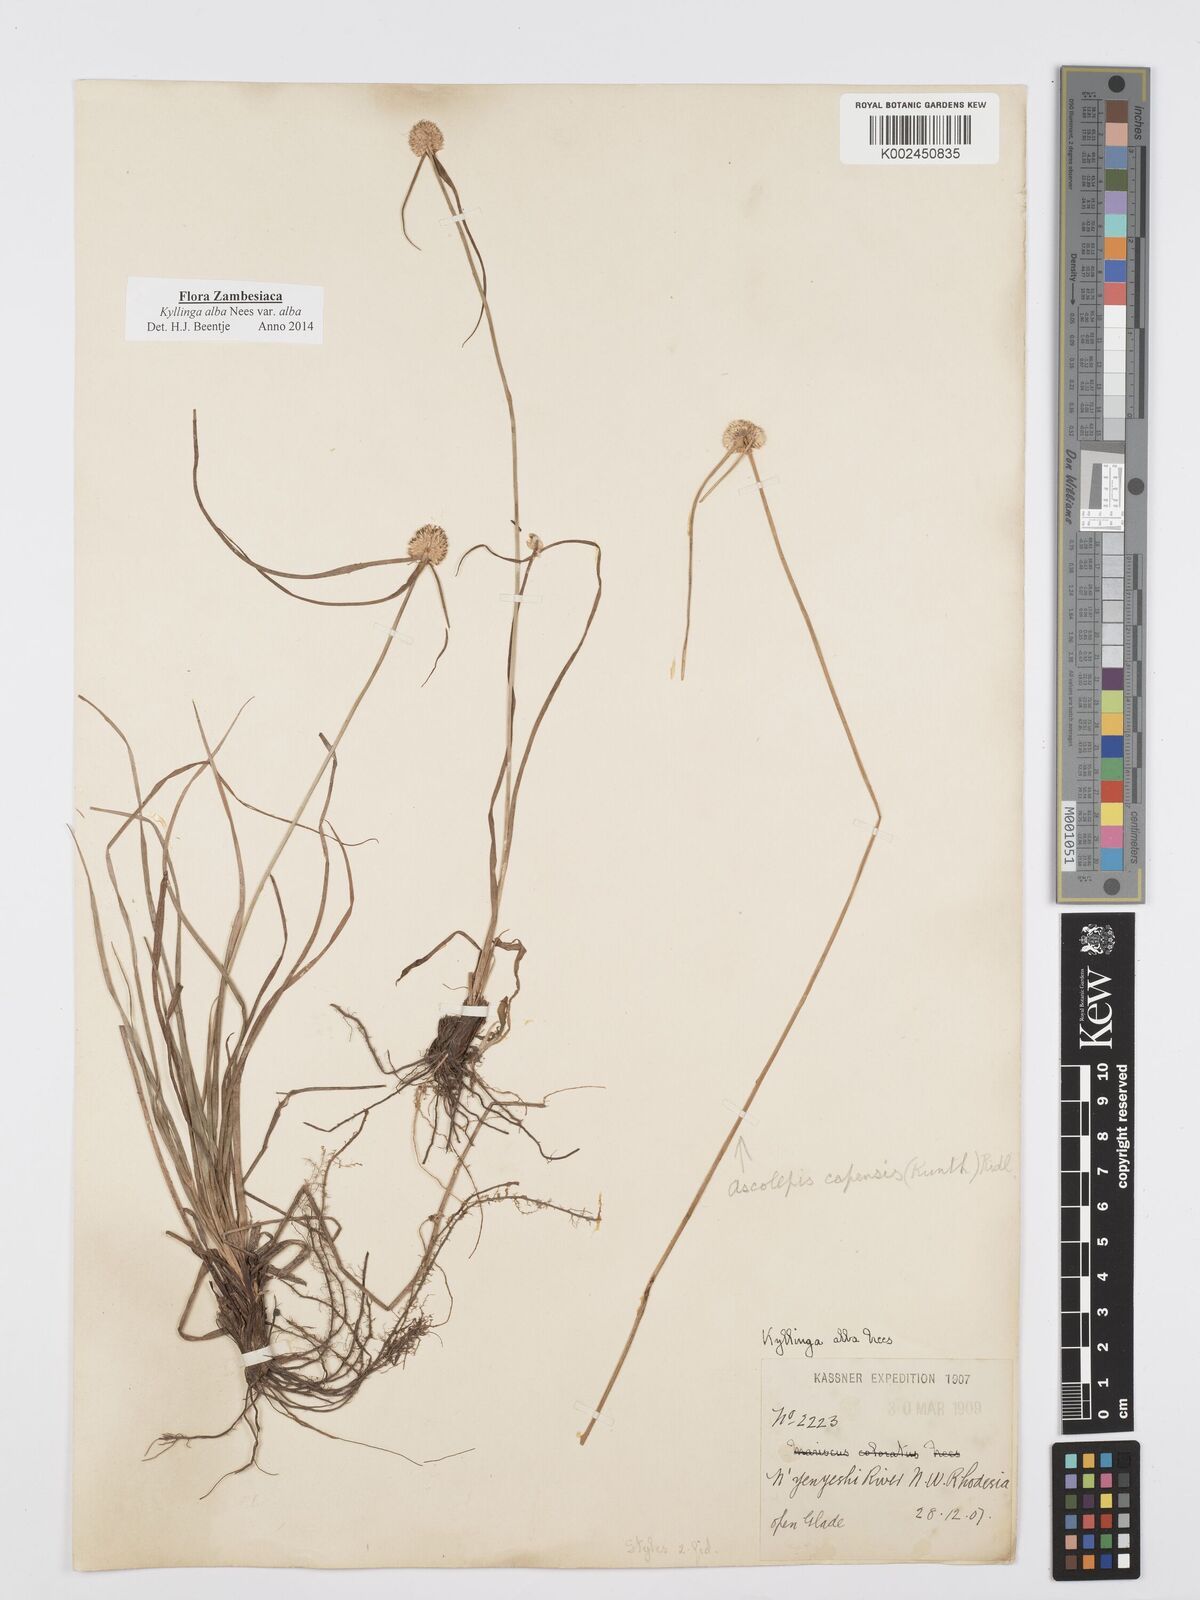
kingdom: Plantae
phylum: Tracheophyta
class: Liliopsida
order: Poales
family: Cyperaceae
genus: Cyperus
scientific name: Cyperus
